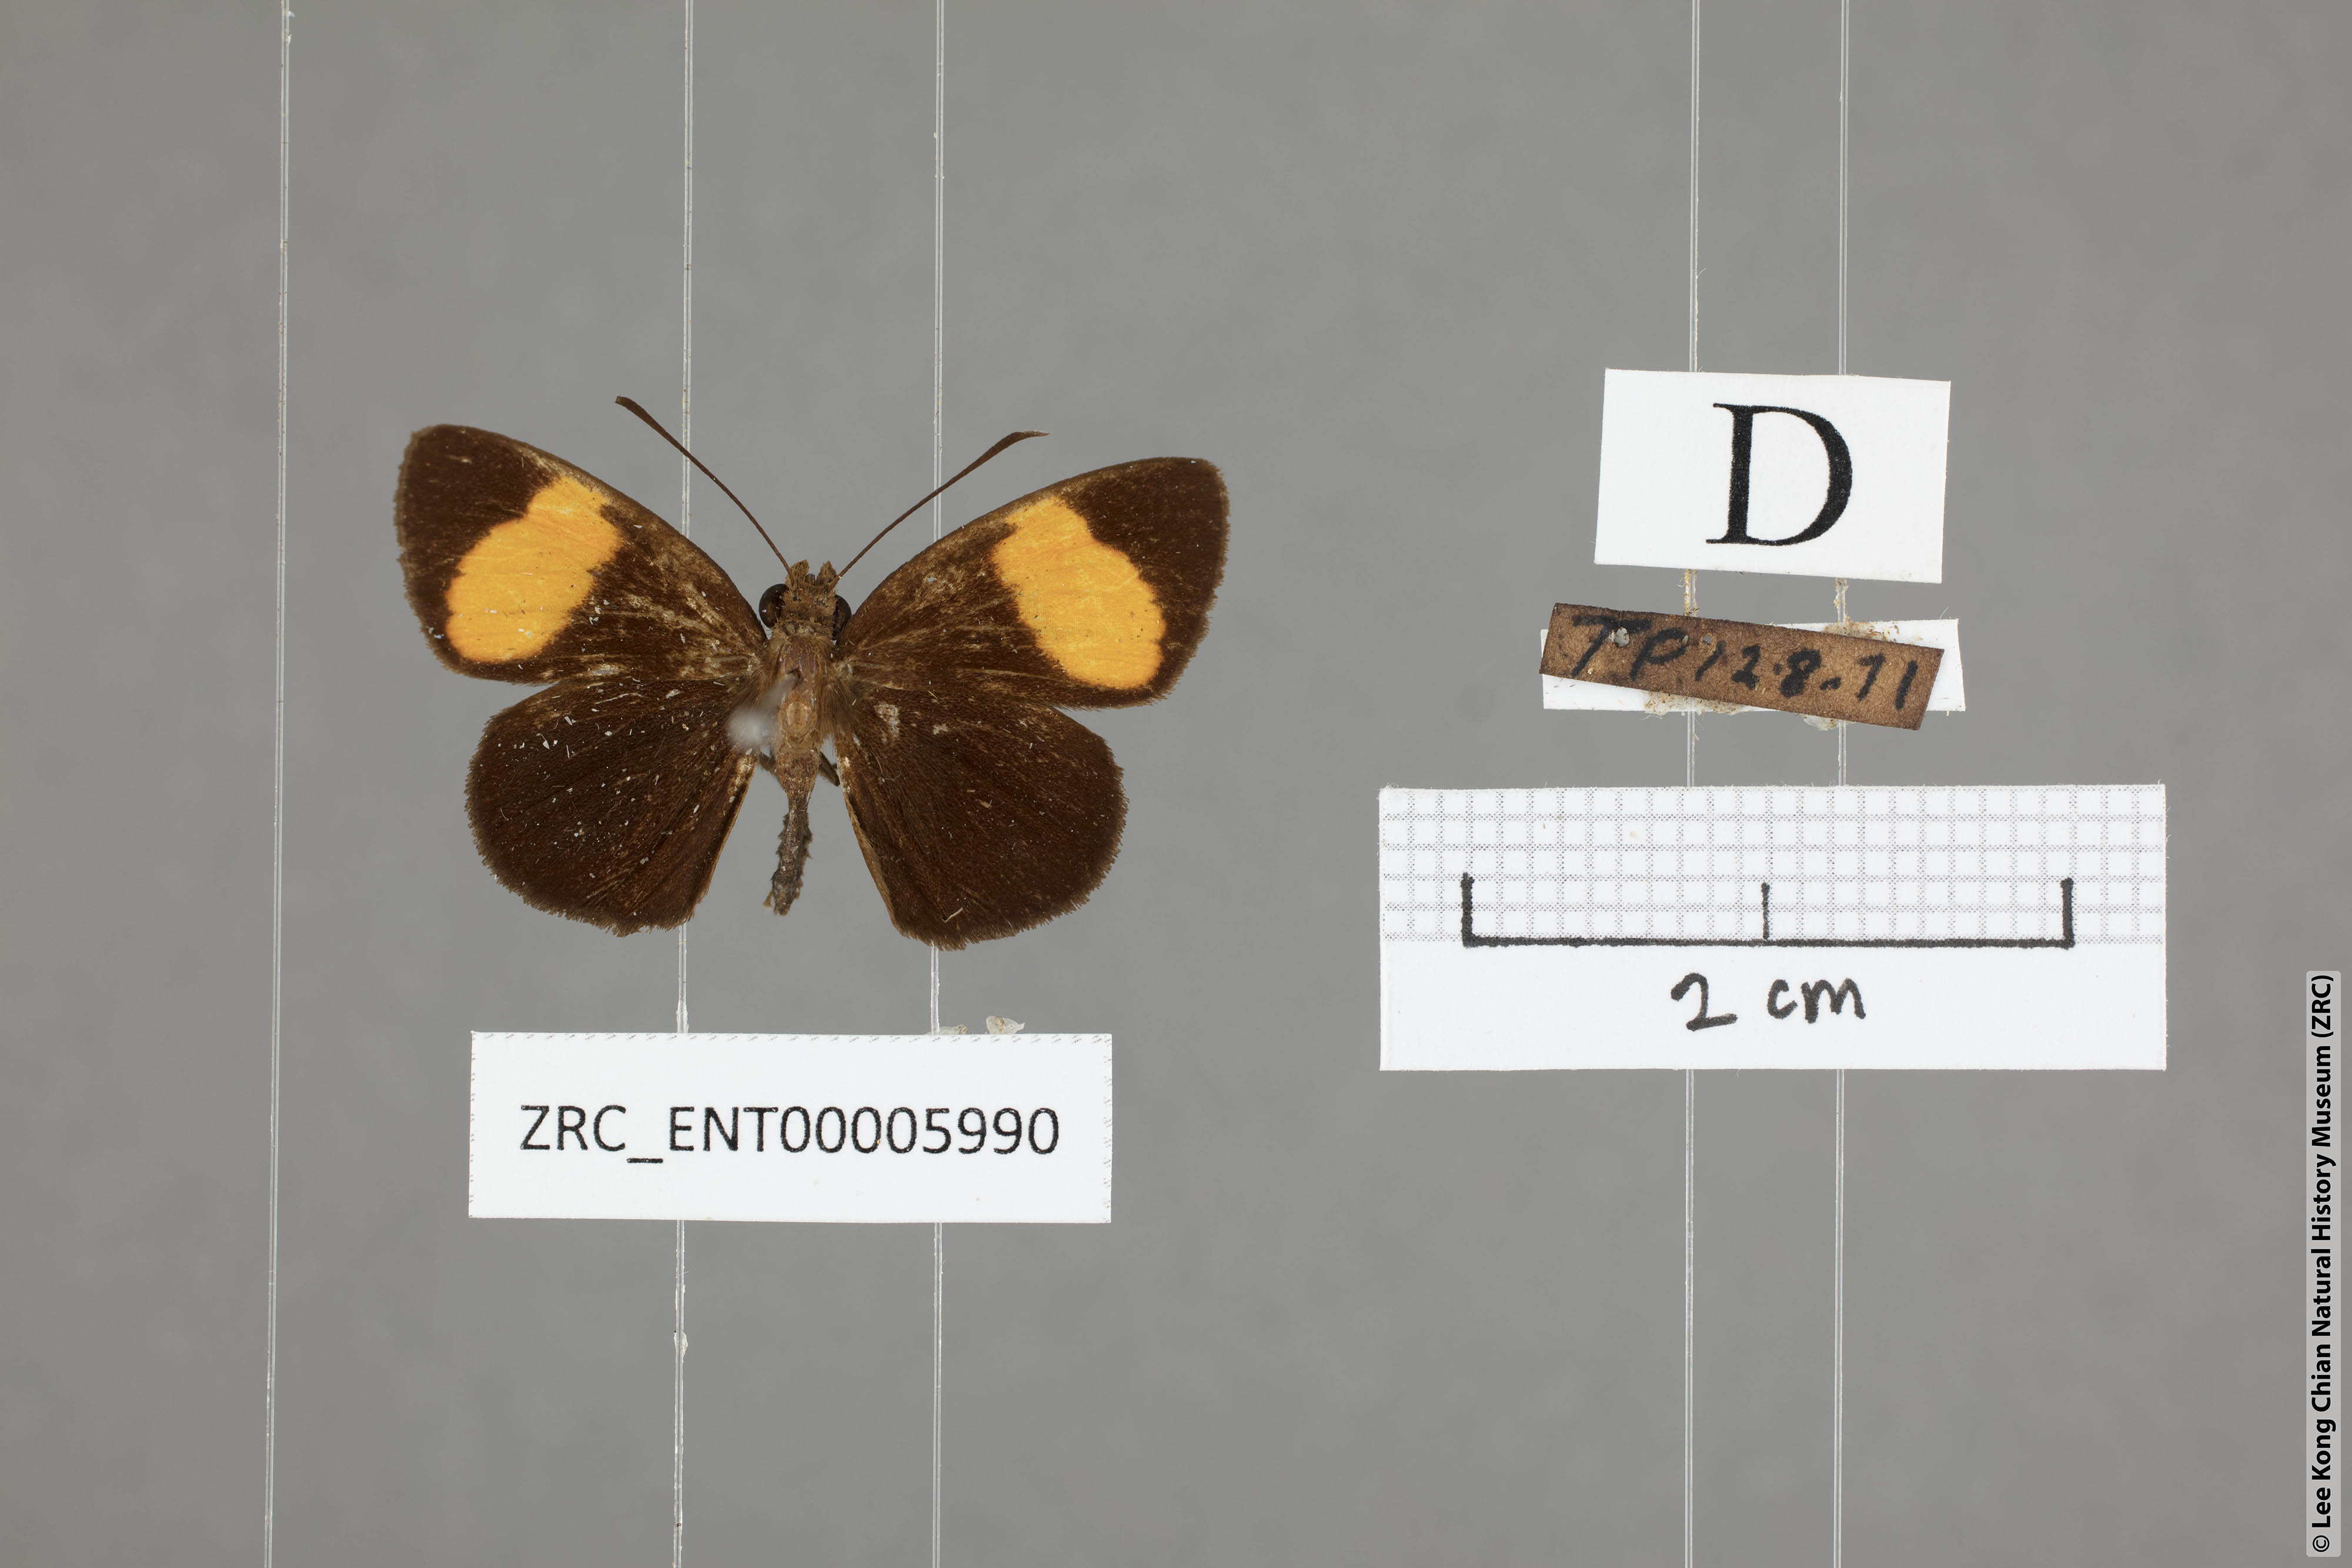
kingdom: Animalia
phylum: Arthropoda
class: Insecta
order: Lepidoptera
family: Hesperiidae
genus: Ancistroides
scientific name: Ancistroides gemmifer
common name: Gem demon
